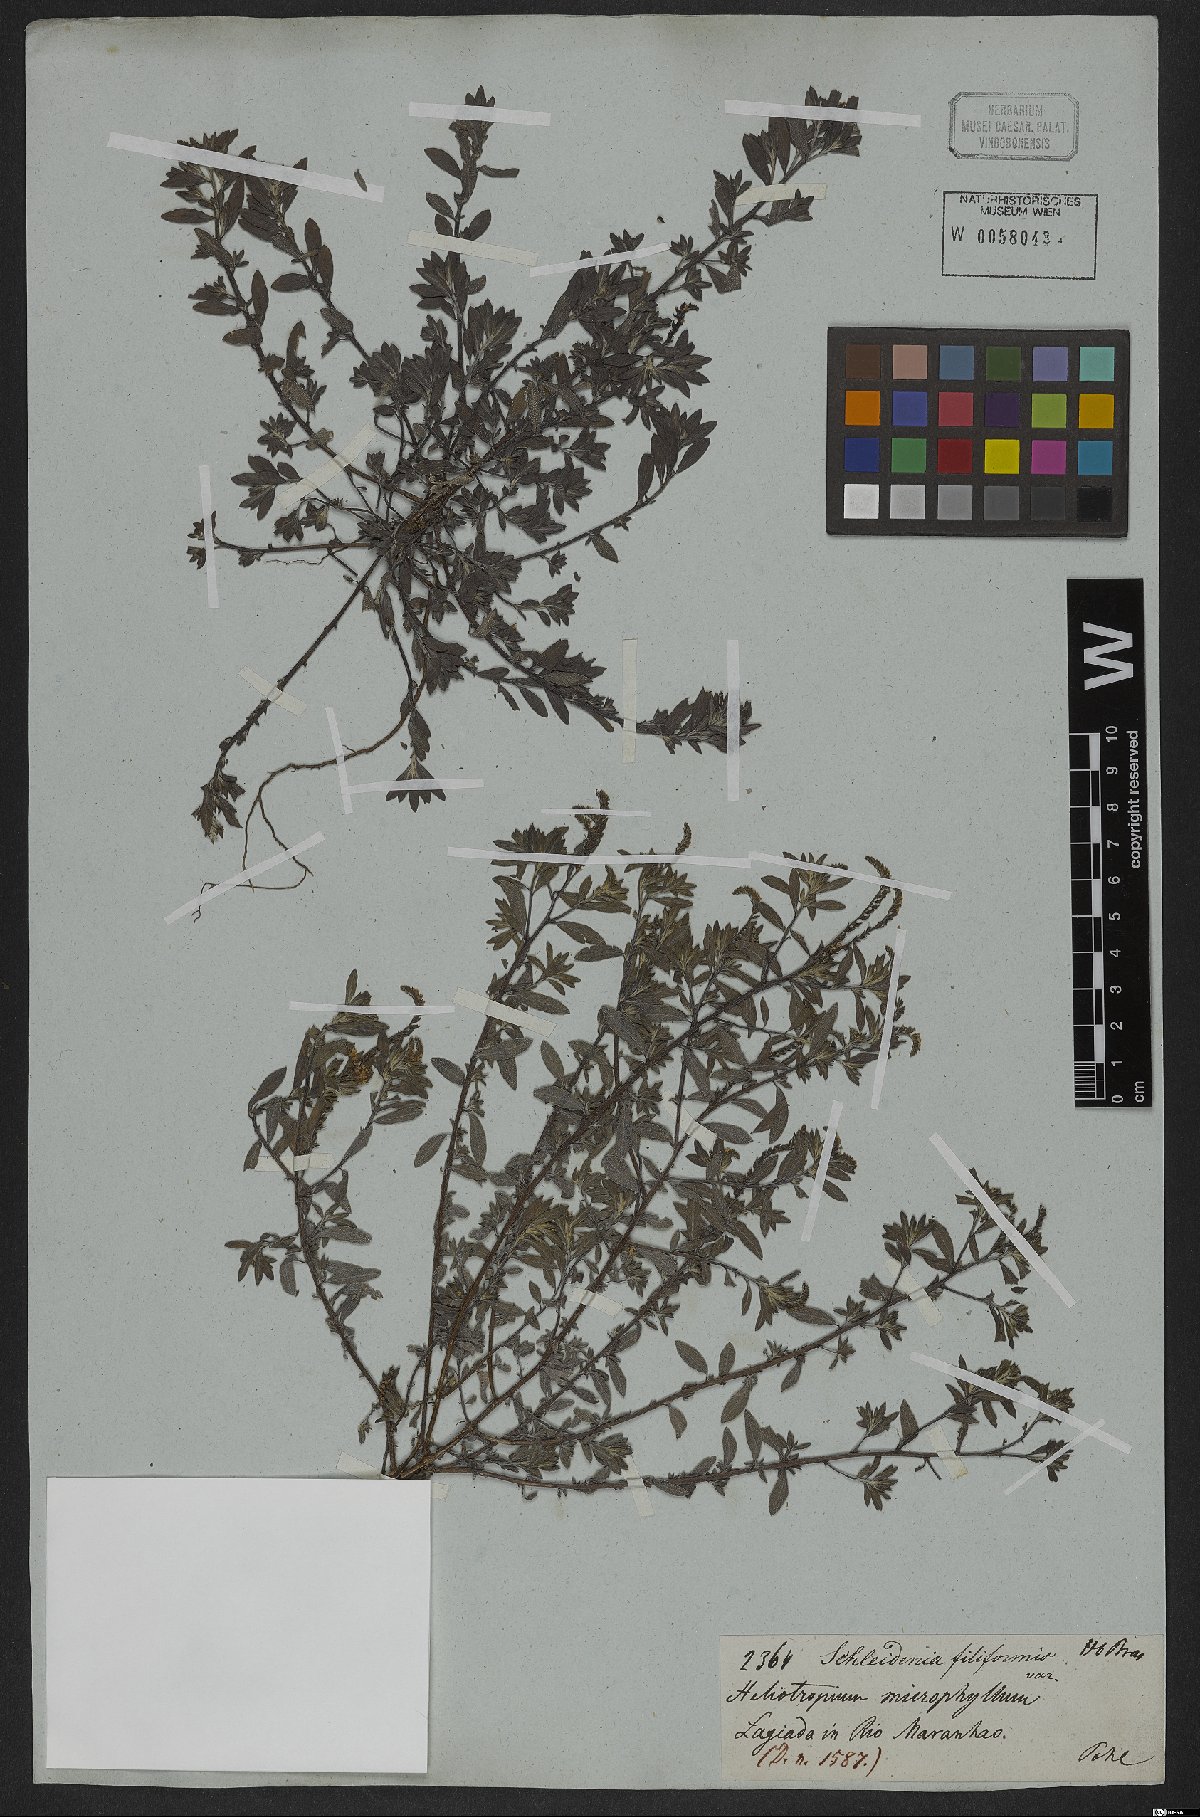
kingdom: Plantae
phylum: Tracheophyta
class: Magnoliopsida
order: Boraginales
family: Heliotropiaceae
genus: Euploca
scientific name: Euploca microphylla
